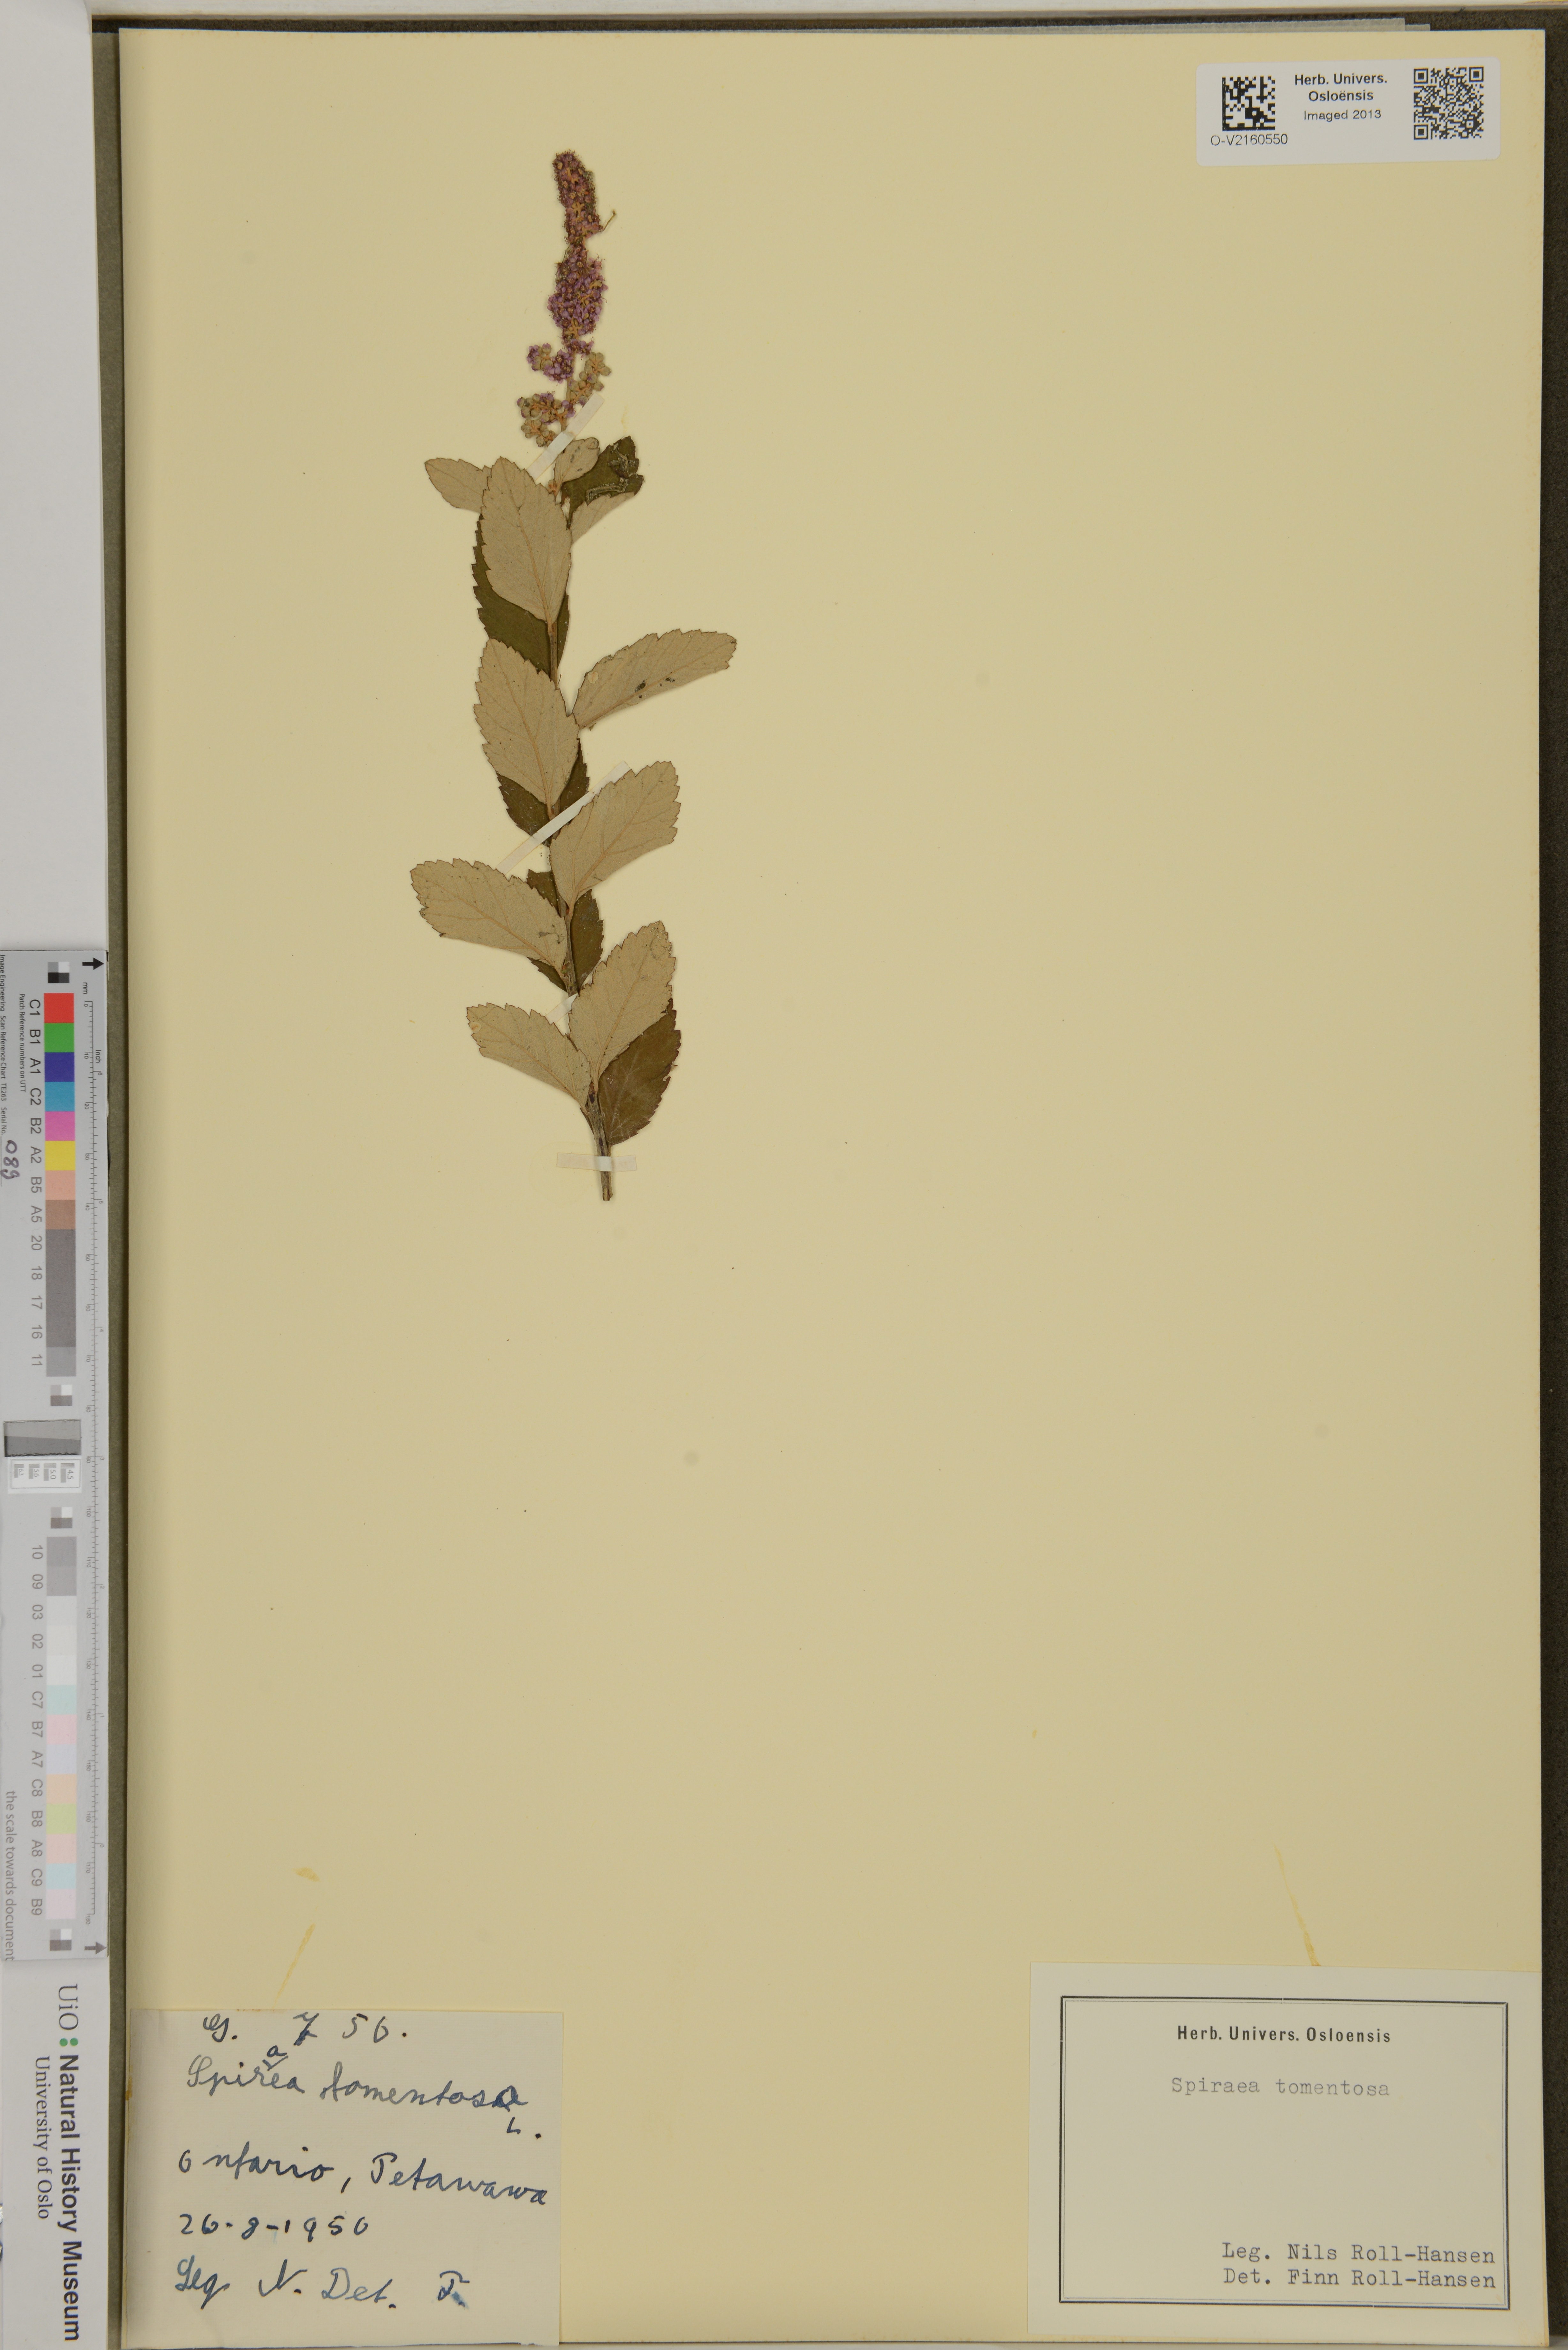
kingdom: Plantae
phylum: Tracheophyta
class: Magnoliopsida
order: Rosales
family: Rosaceae
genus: Spiraea
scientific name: Spiraea tomentosa
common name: Hardhack
